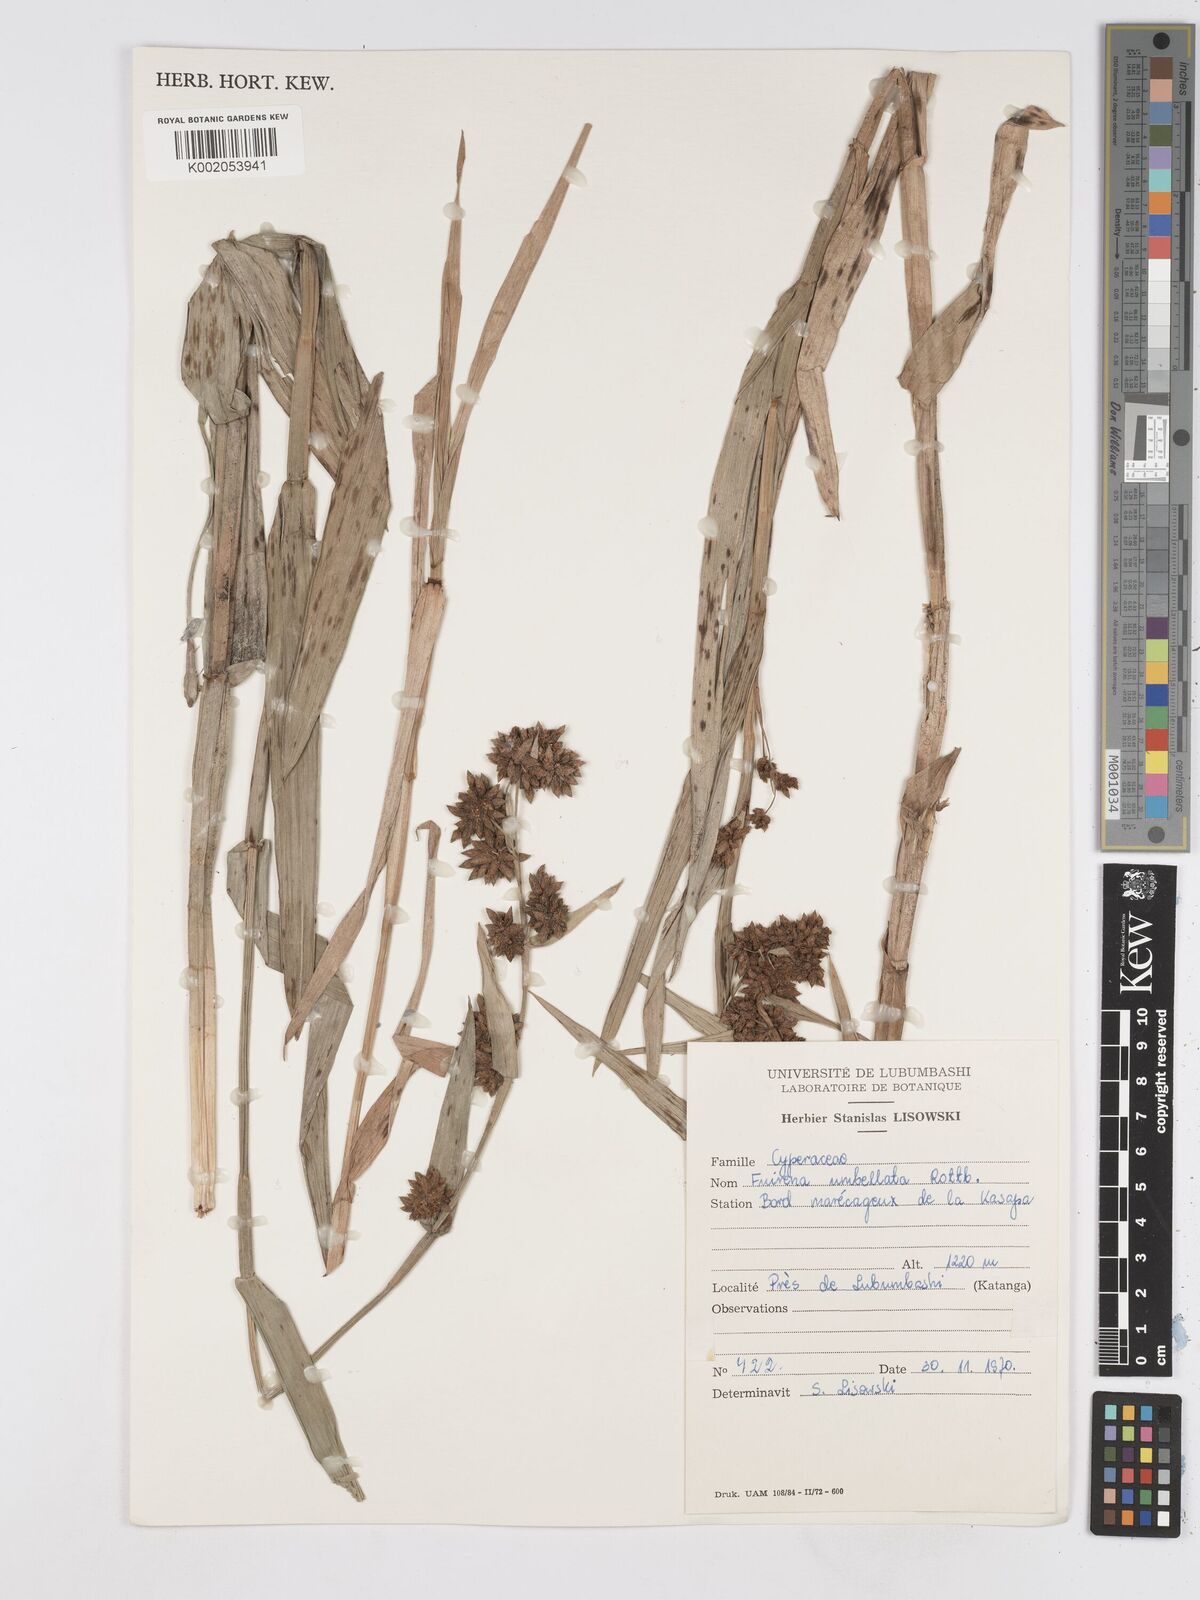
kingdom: Plantae
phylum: Tracheophyta
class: Liliopsida
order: Poales
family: Cyperaceae
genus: Fuirena
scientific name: Fuirena umbellata
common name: Yefen
